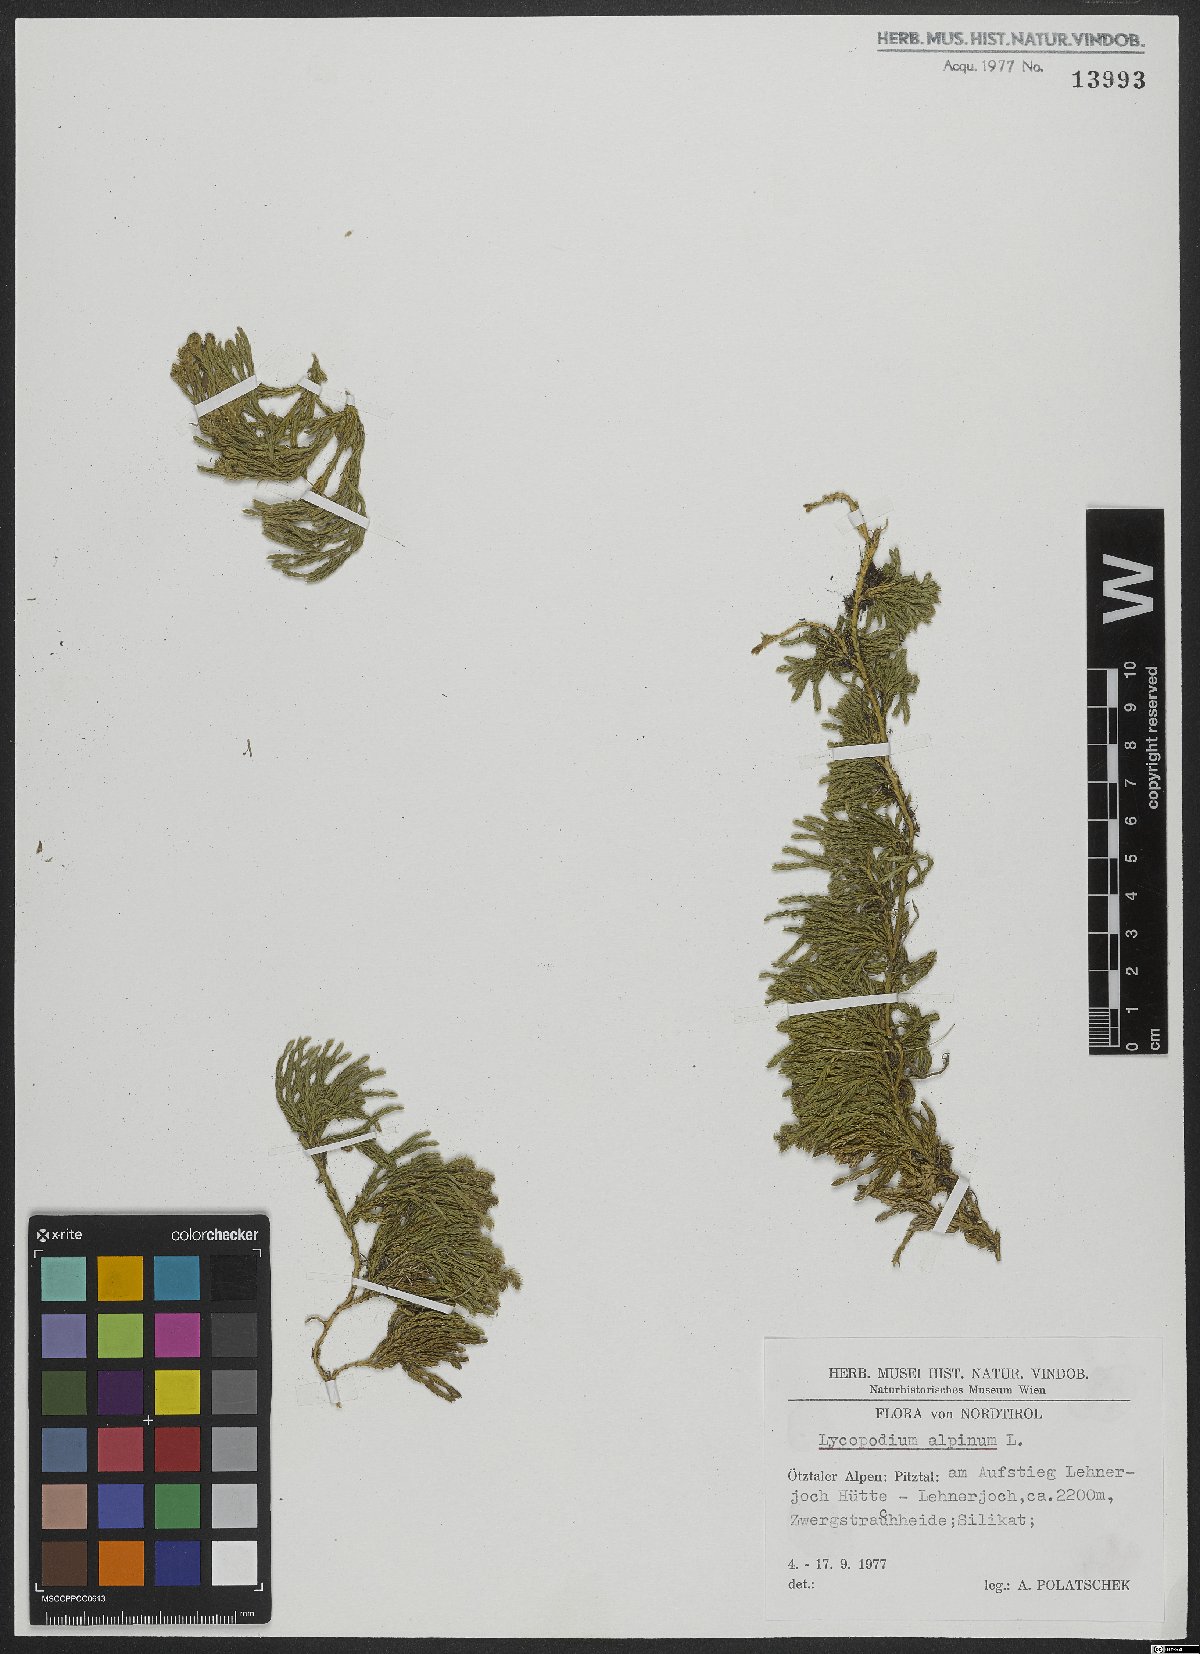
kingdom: Plantae
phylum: Tracheophyta
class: Lycopodiopsida
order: Lycopodiales
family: Lycopodiaceae
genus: Diphasiastrum
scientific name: Diphasiastrum alpinum
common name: Alpine clubmoss
